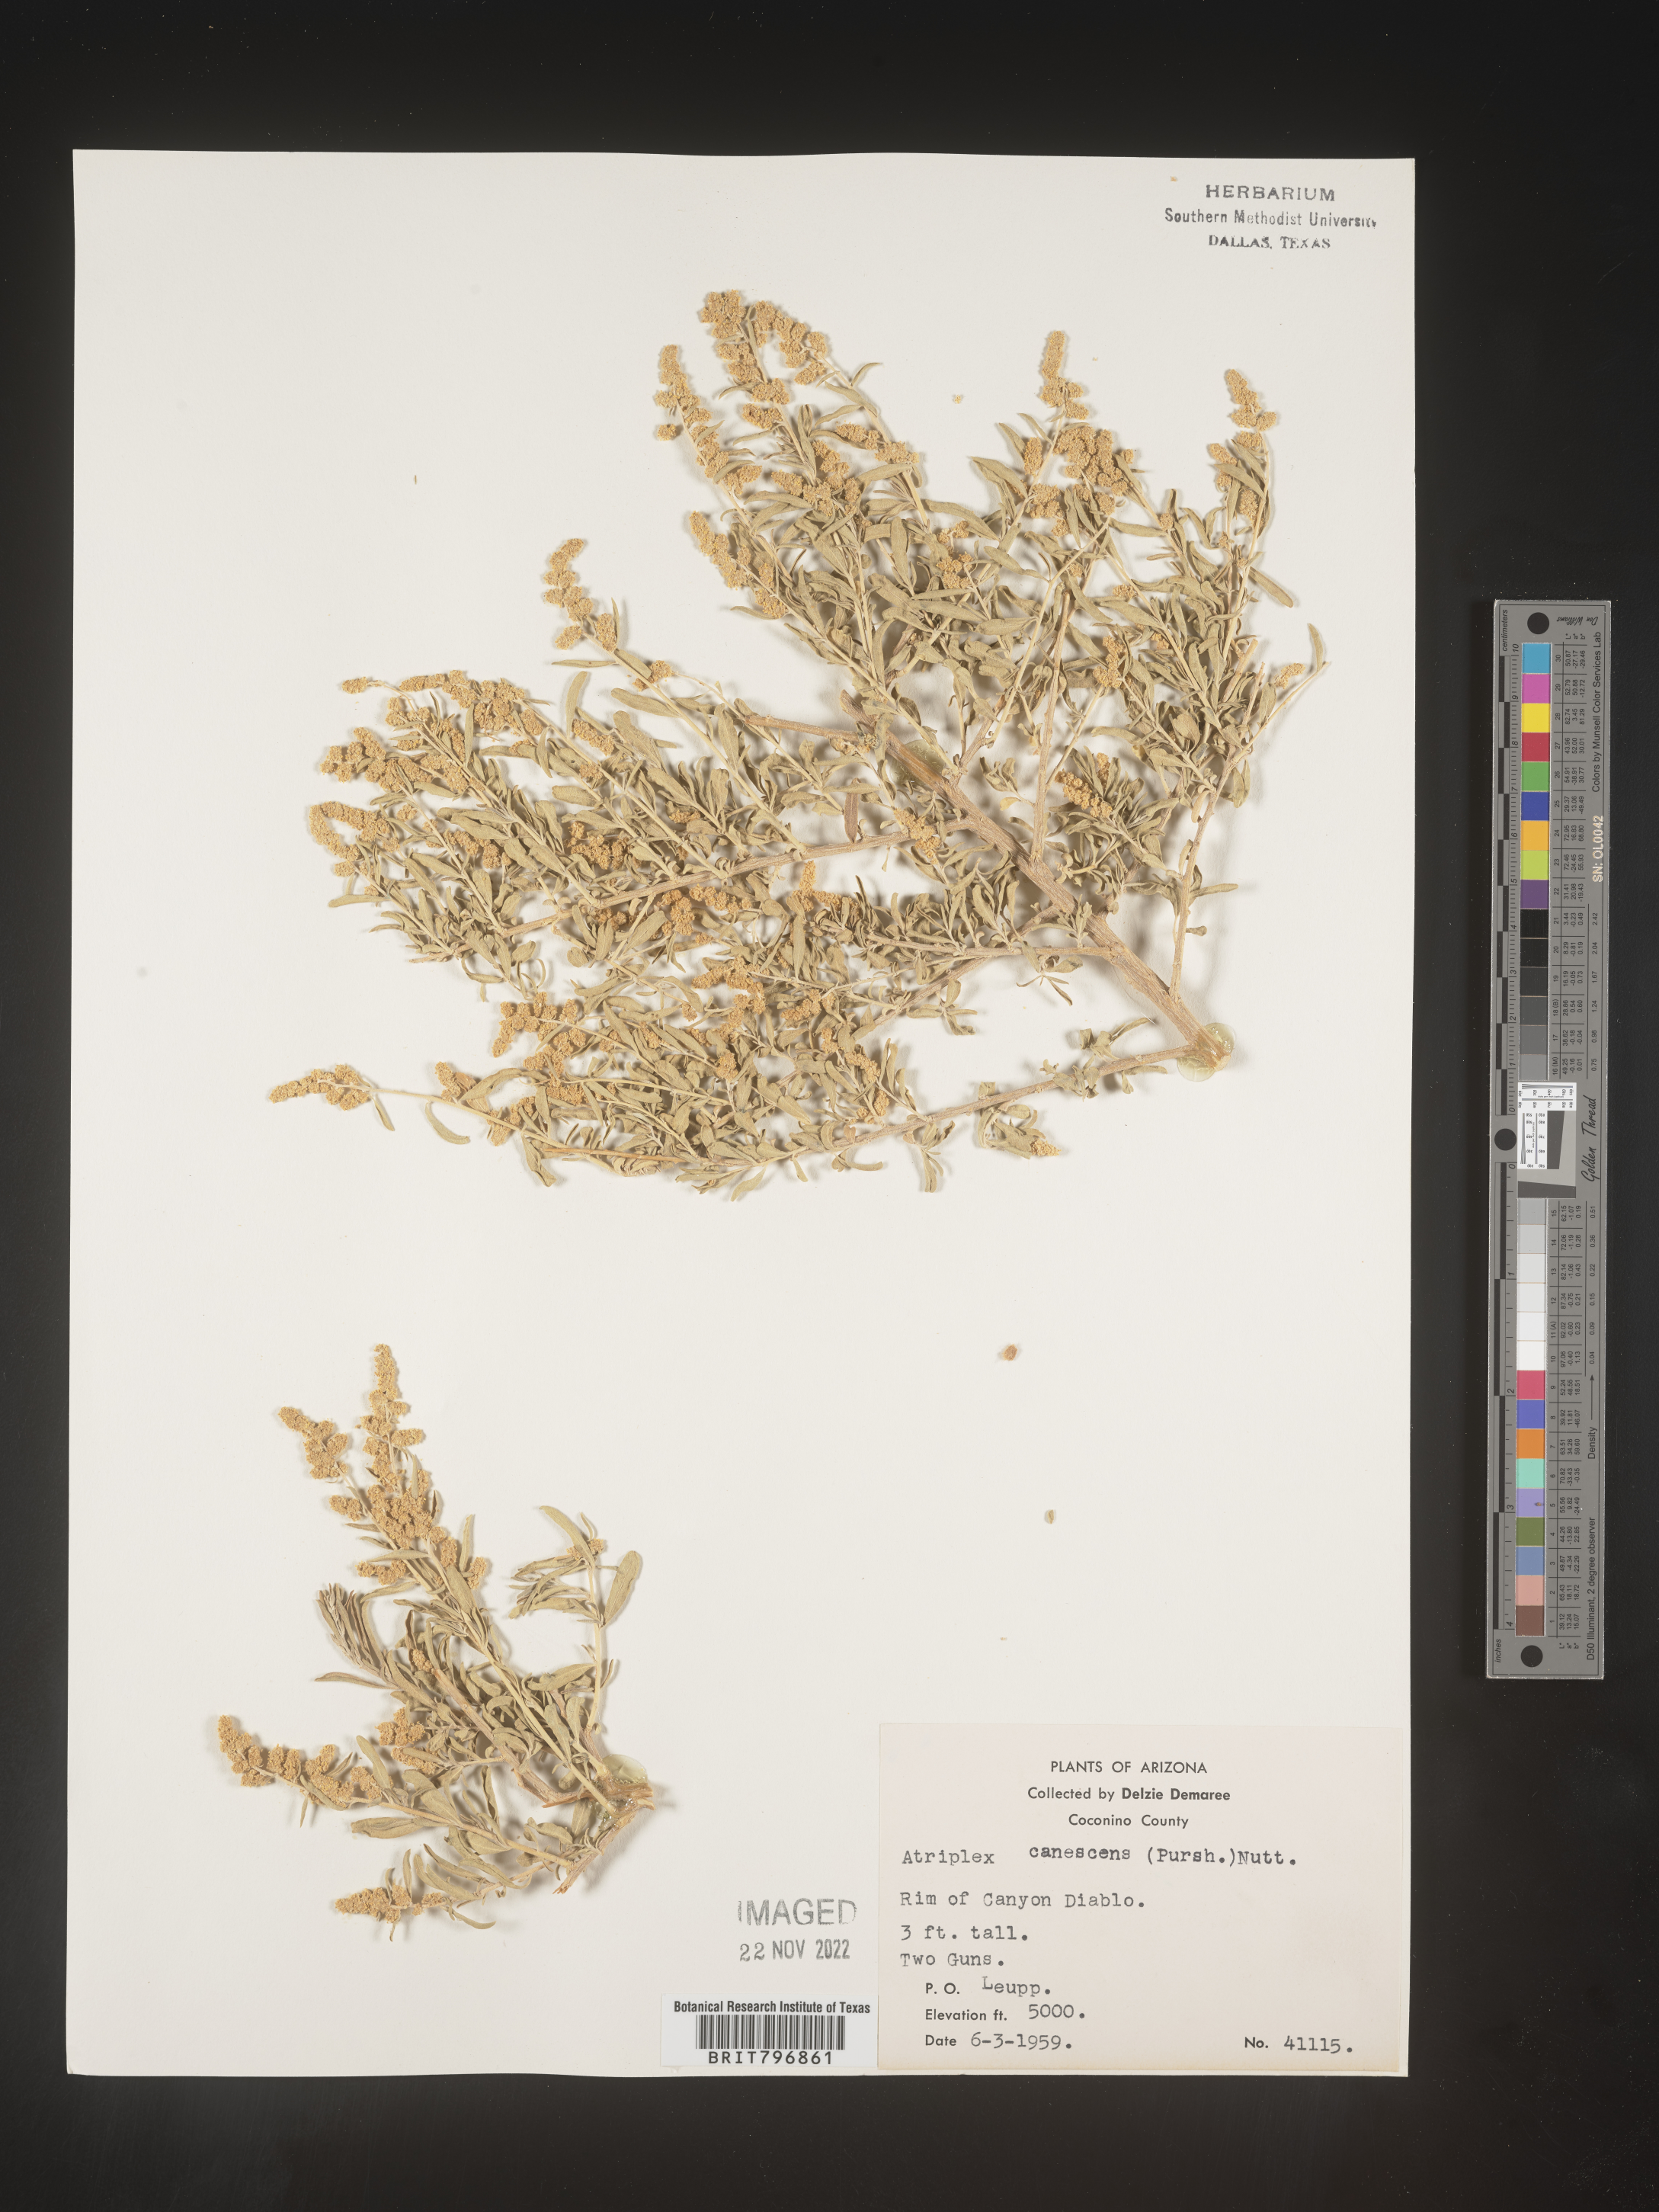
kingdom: Plantae
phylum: Tracheophyta
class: Magnoliopsida
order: Caryophyllales
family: Amaranthaceae
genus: Atriplex
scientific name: Atriplex canescens
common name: Four-wing saltbush
